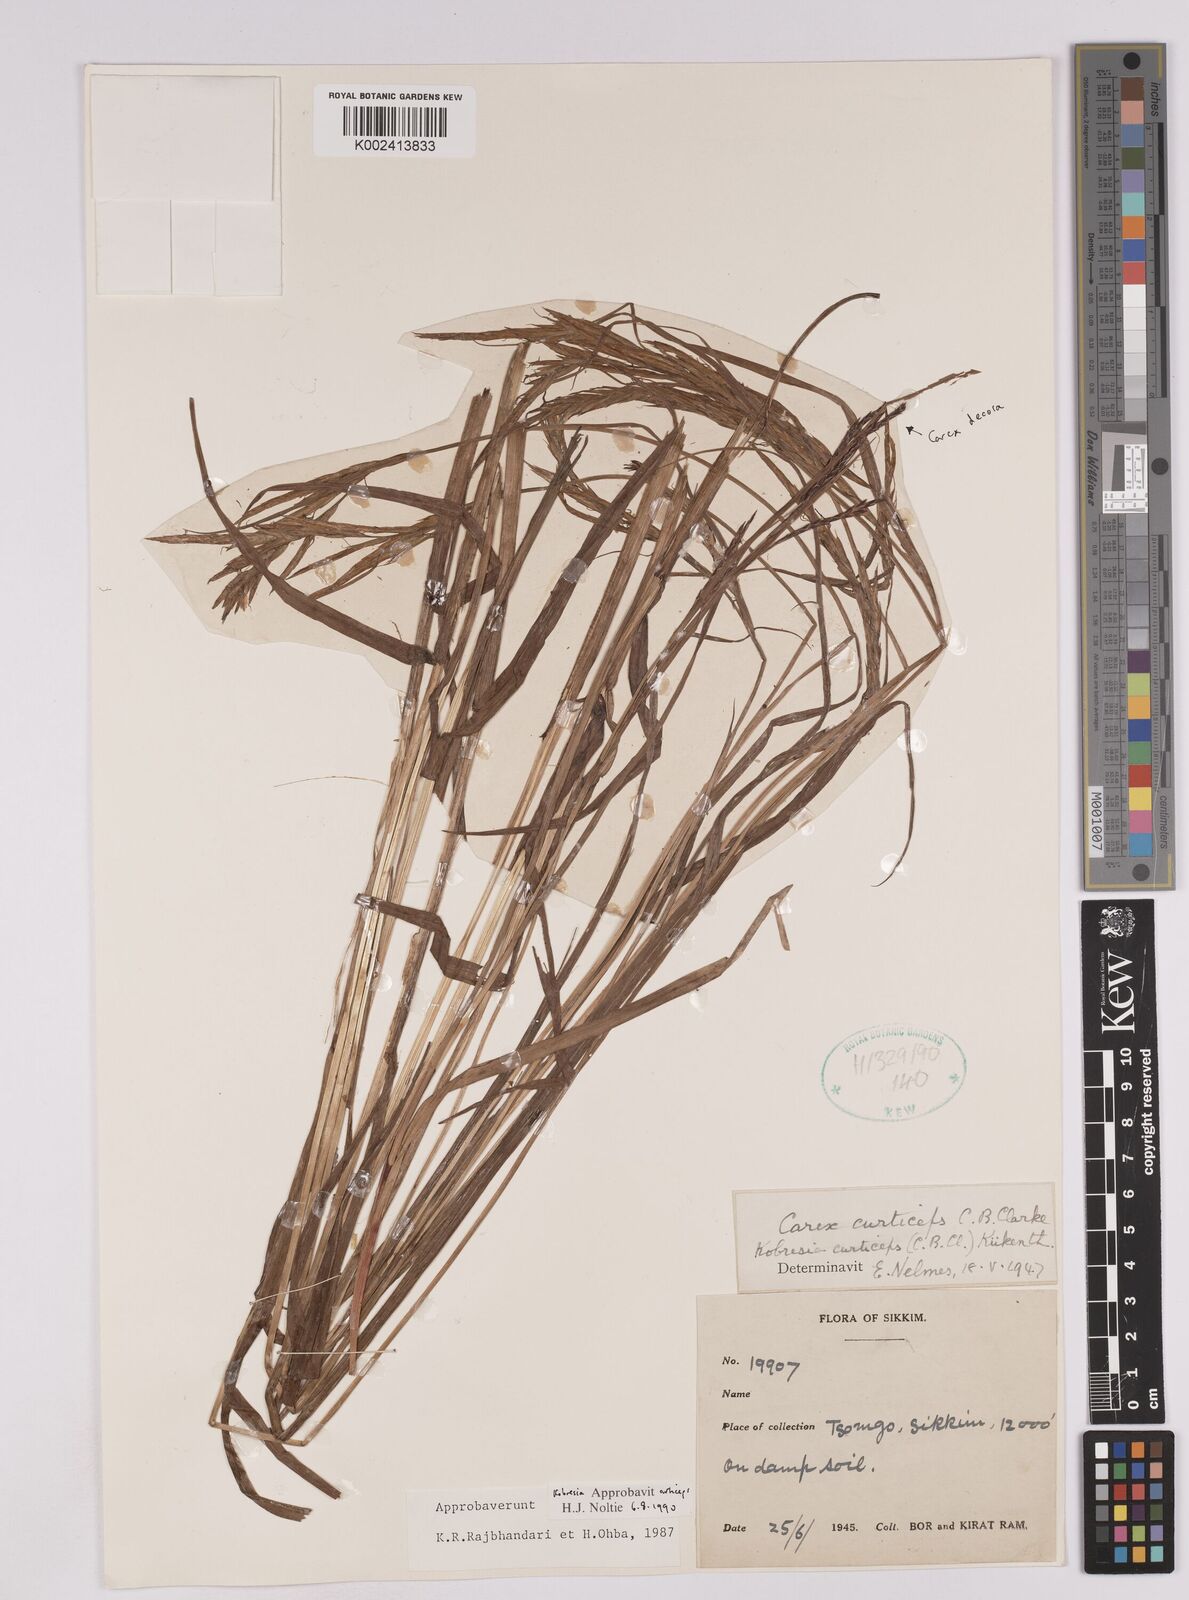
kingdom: Plantae
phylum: Tracheophyta
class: Liliopsida
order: Poales
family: Cyperaceae
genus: Carex
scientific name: Carex curticeps
